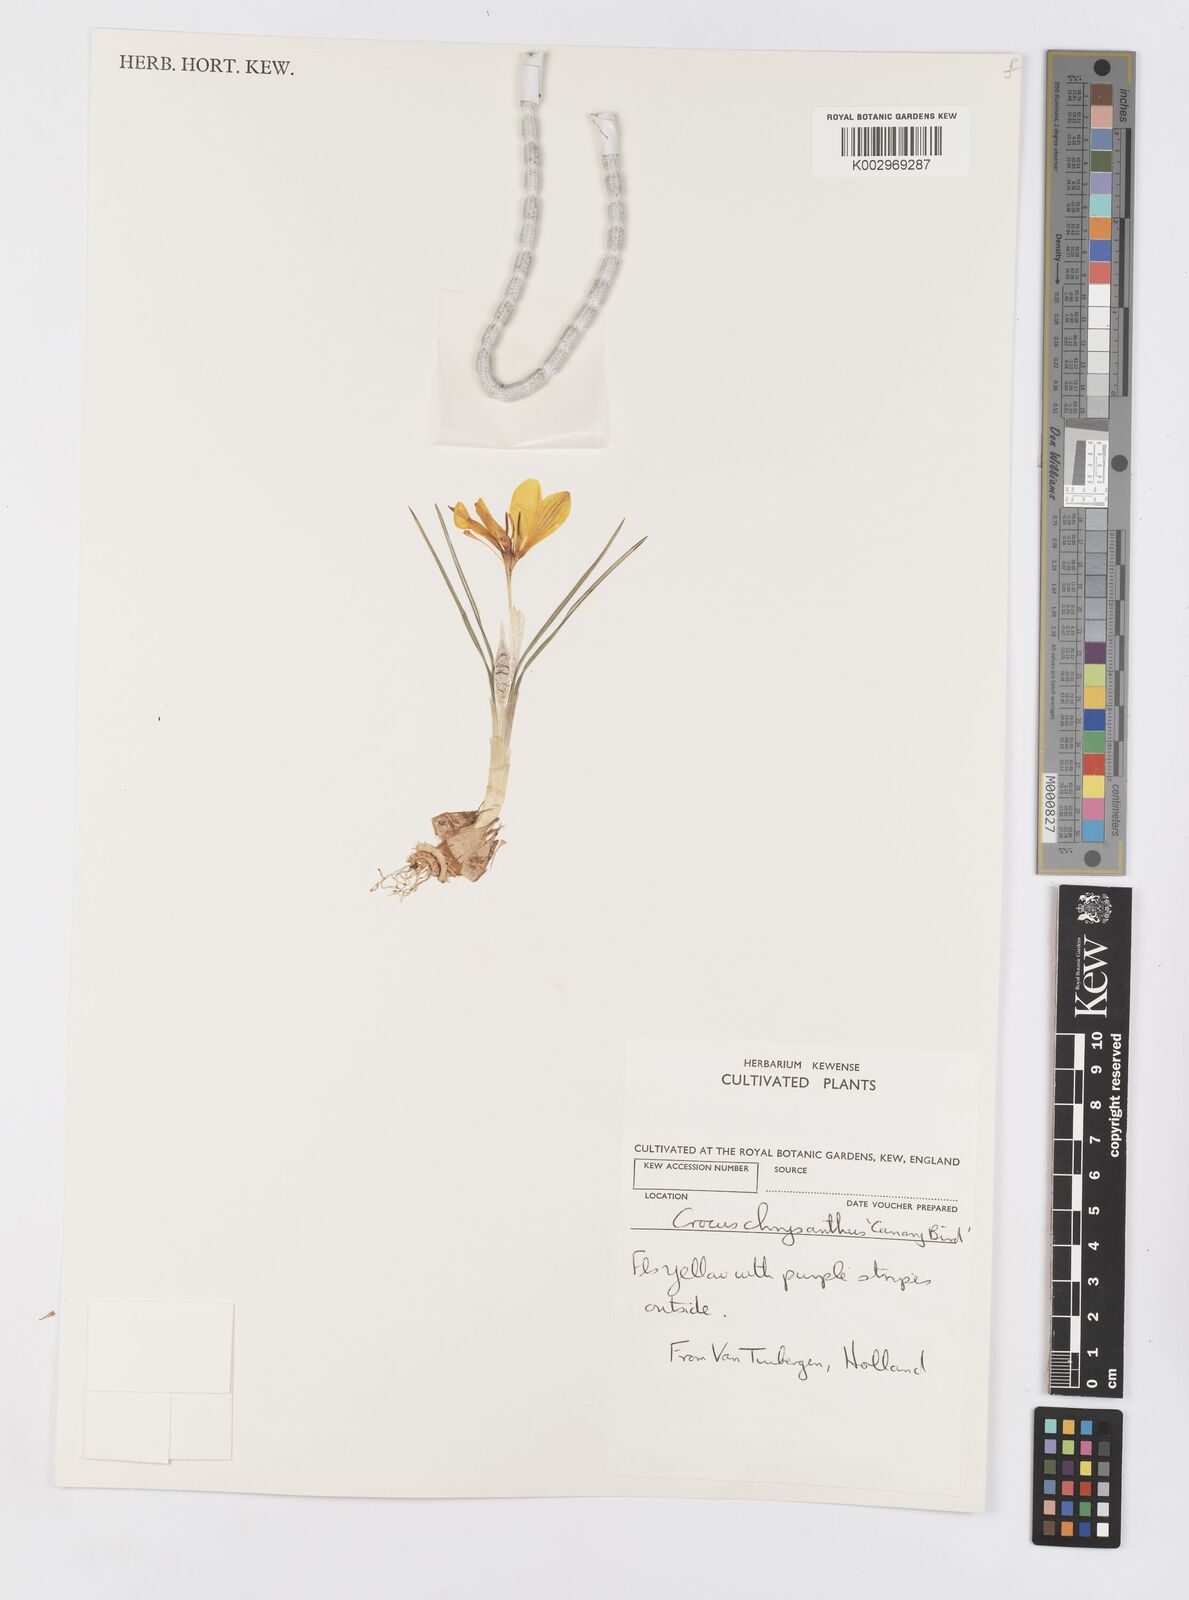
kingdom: Plantae
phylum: Tracheophyta
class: Liliopsida
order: Asparagales
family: Iridaceae
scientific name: Iridaceae
